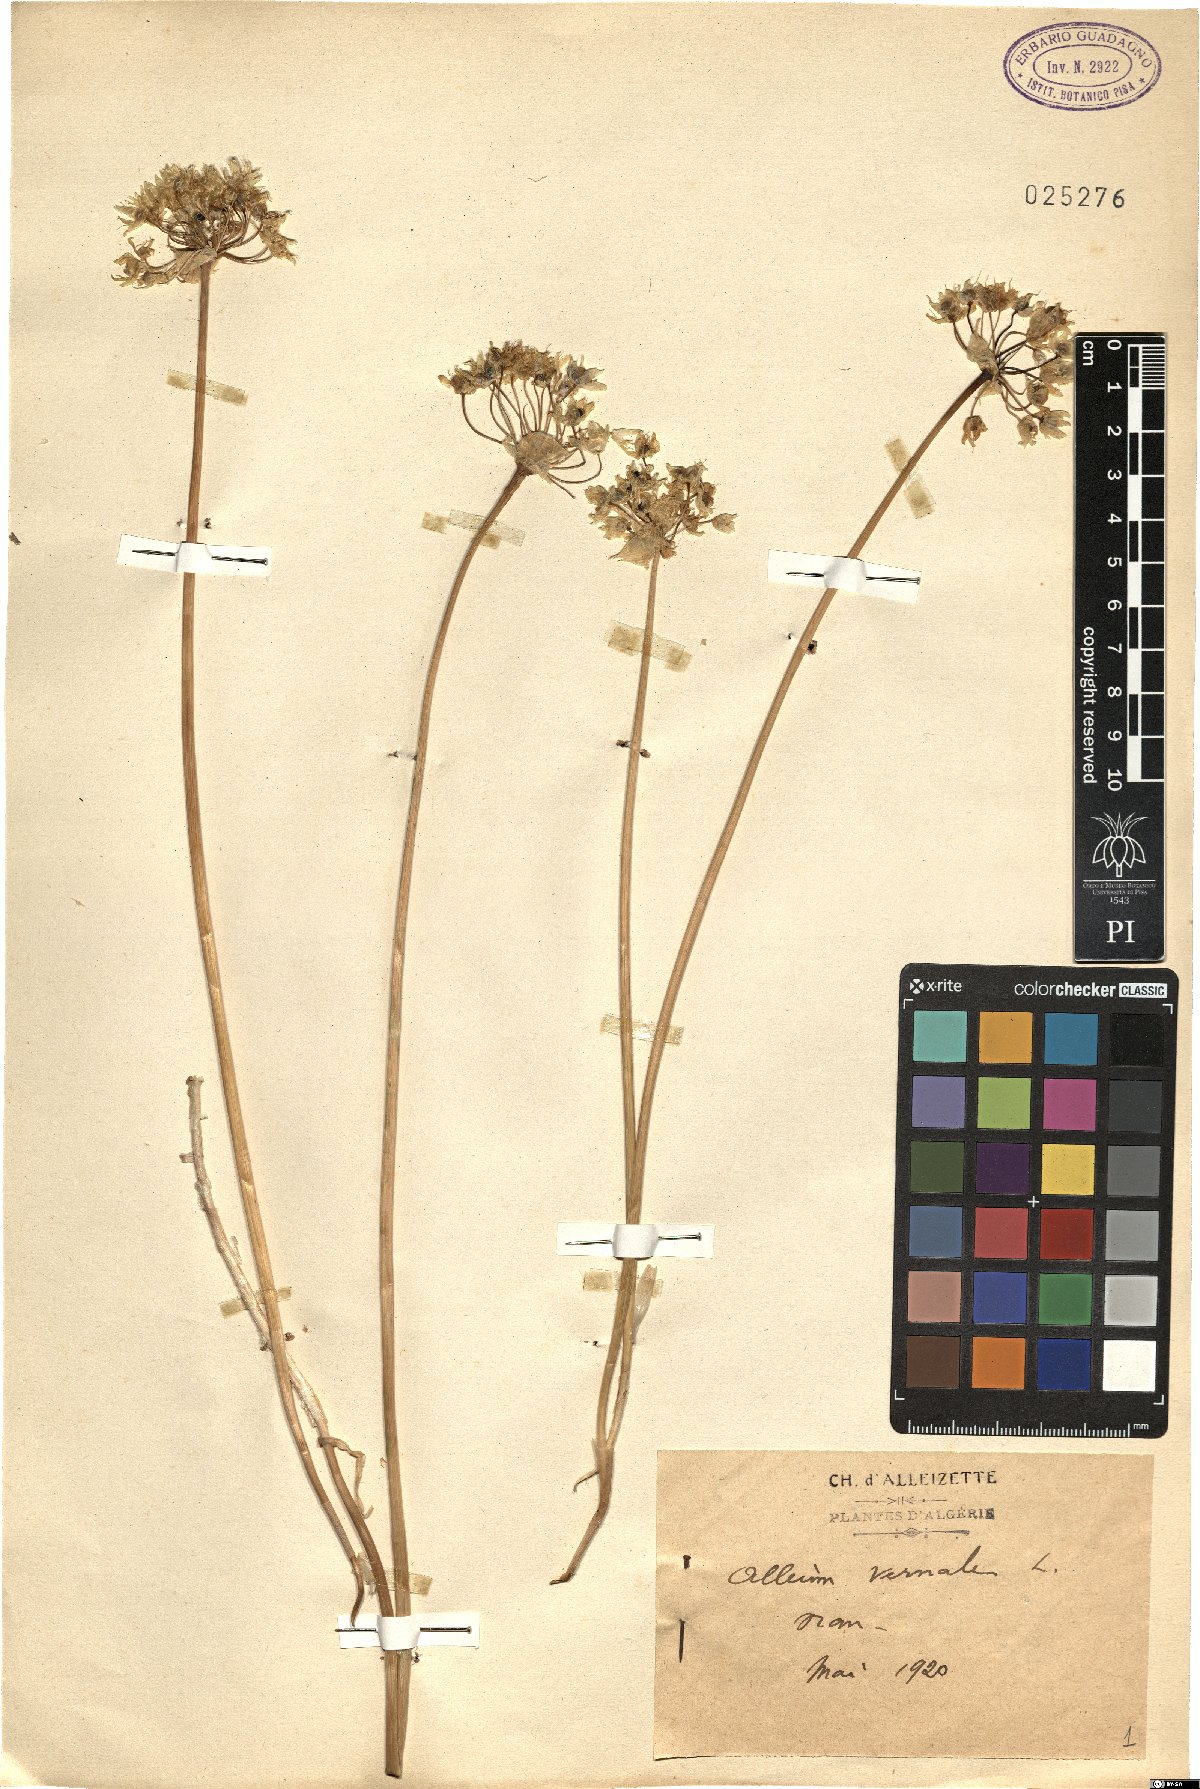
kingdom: Plantae
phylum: Tracheophyta
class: Liliopsida
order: Asparagales
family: Amaryllidaceae
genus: Allium
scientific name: Allium subvillosum
